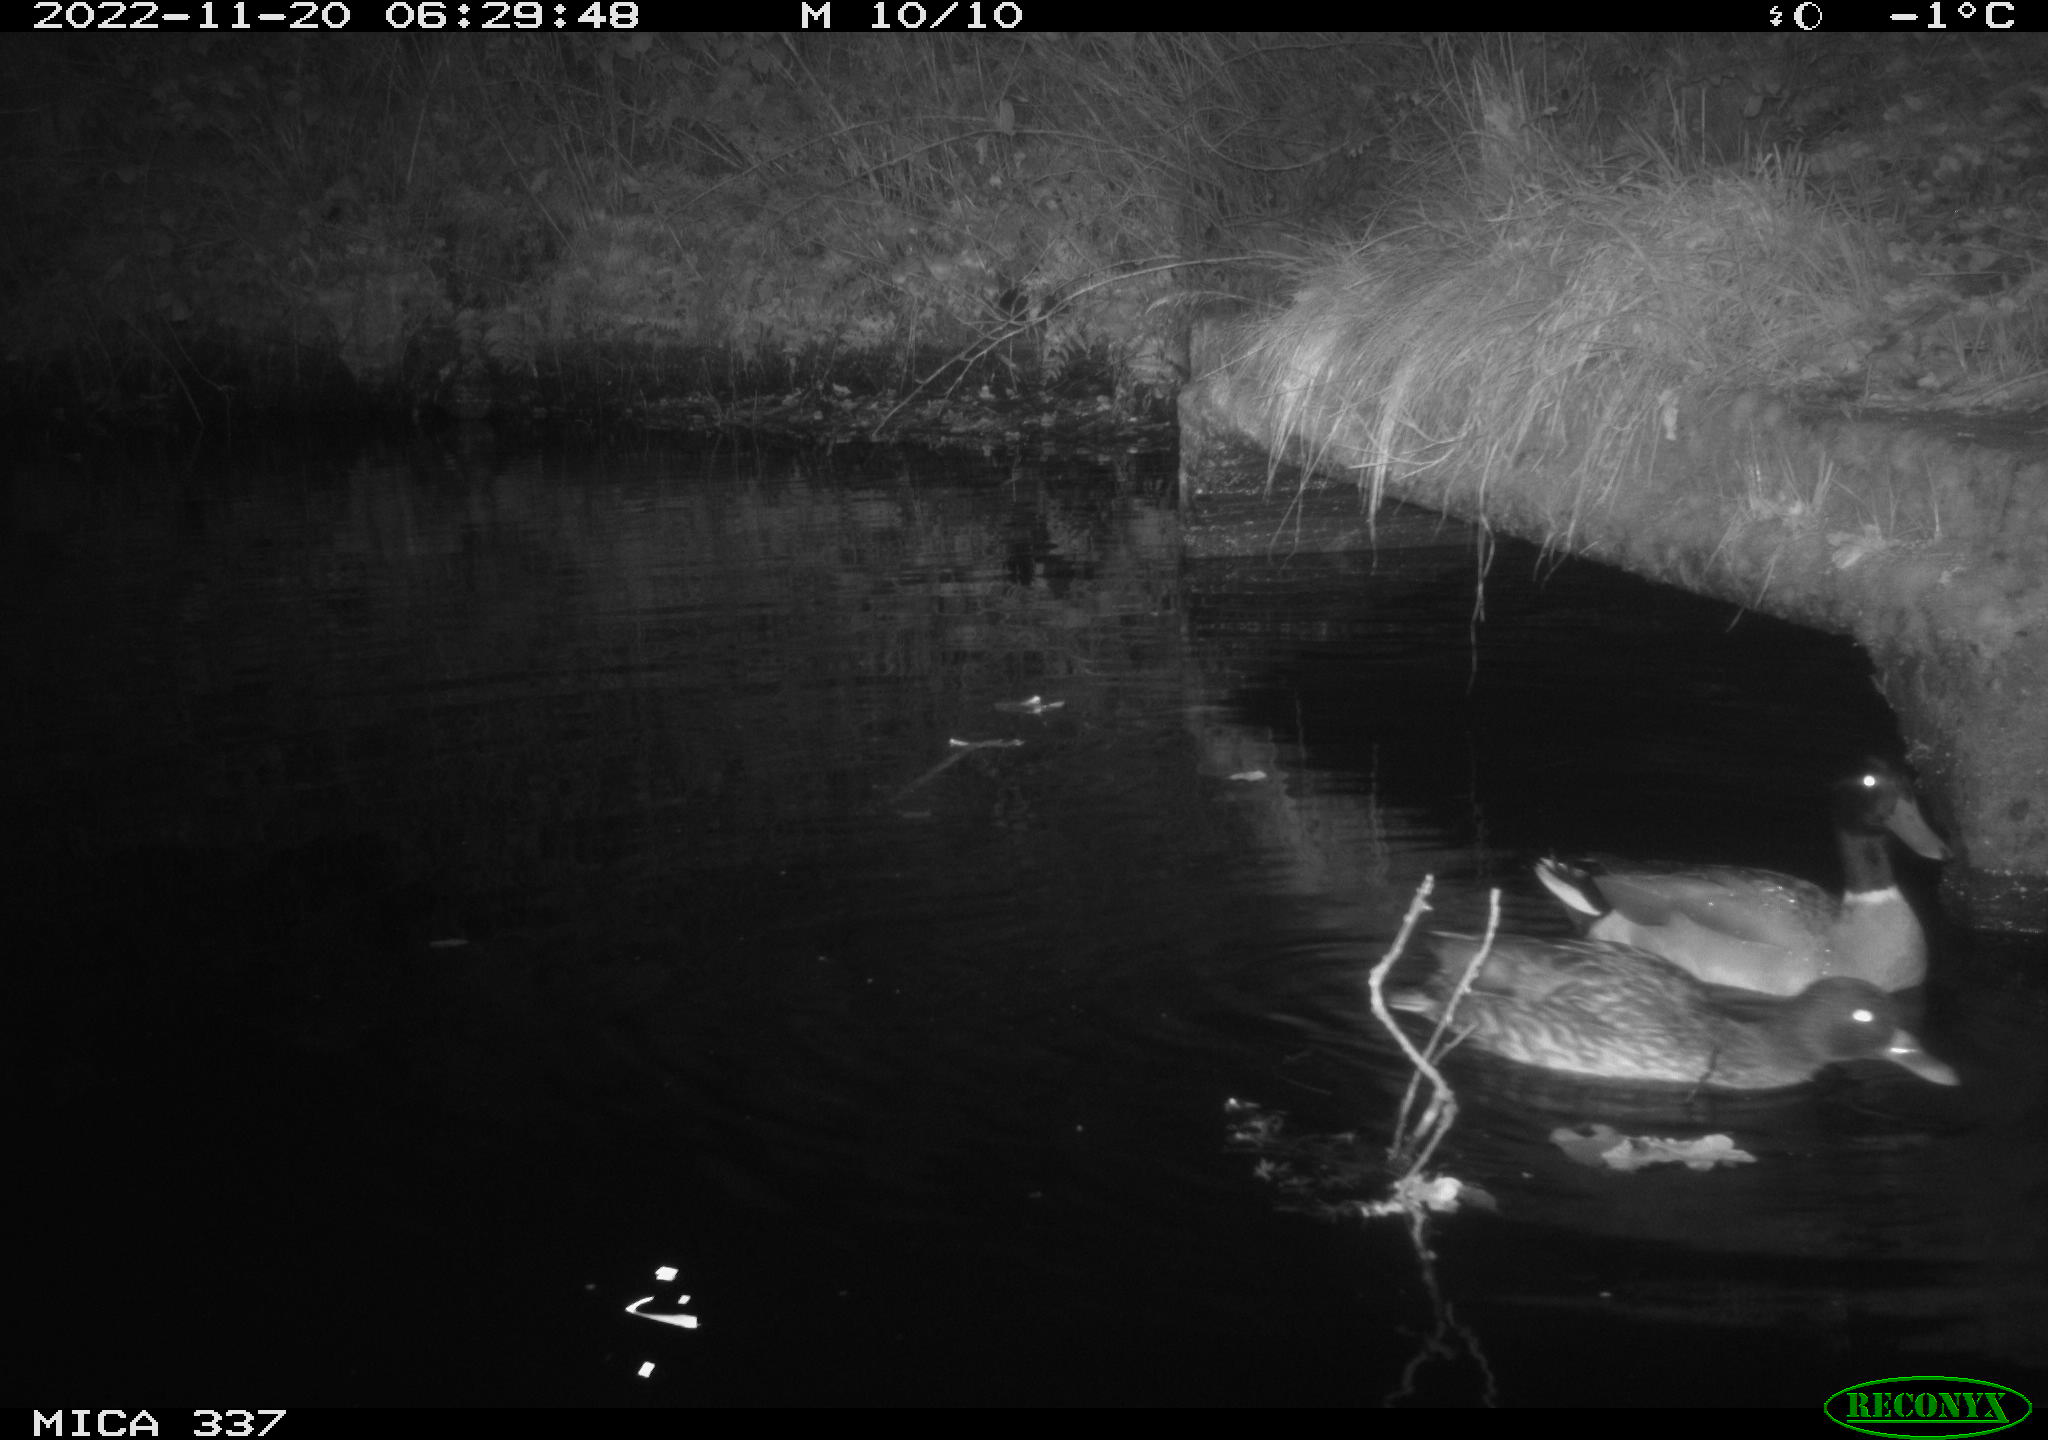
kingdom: Animalia
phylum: Chordata
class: Aves
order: Anseriformes
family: Anatidae
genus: Anas
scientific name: Anas platyrhynchos
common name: Mallard
